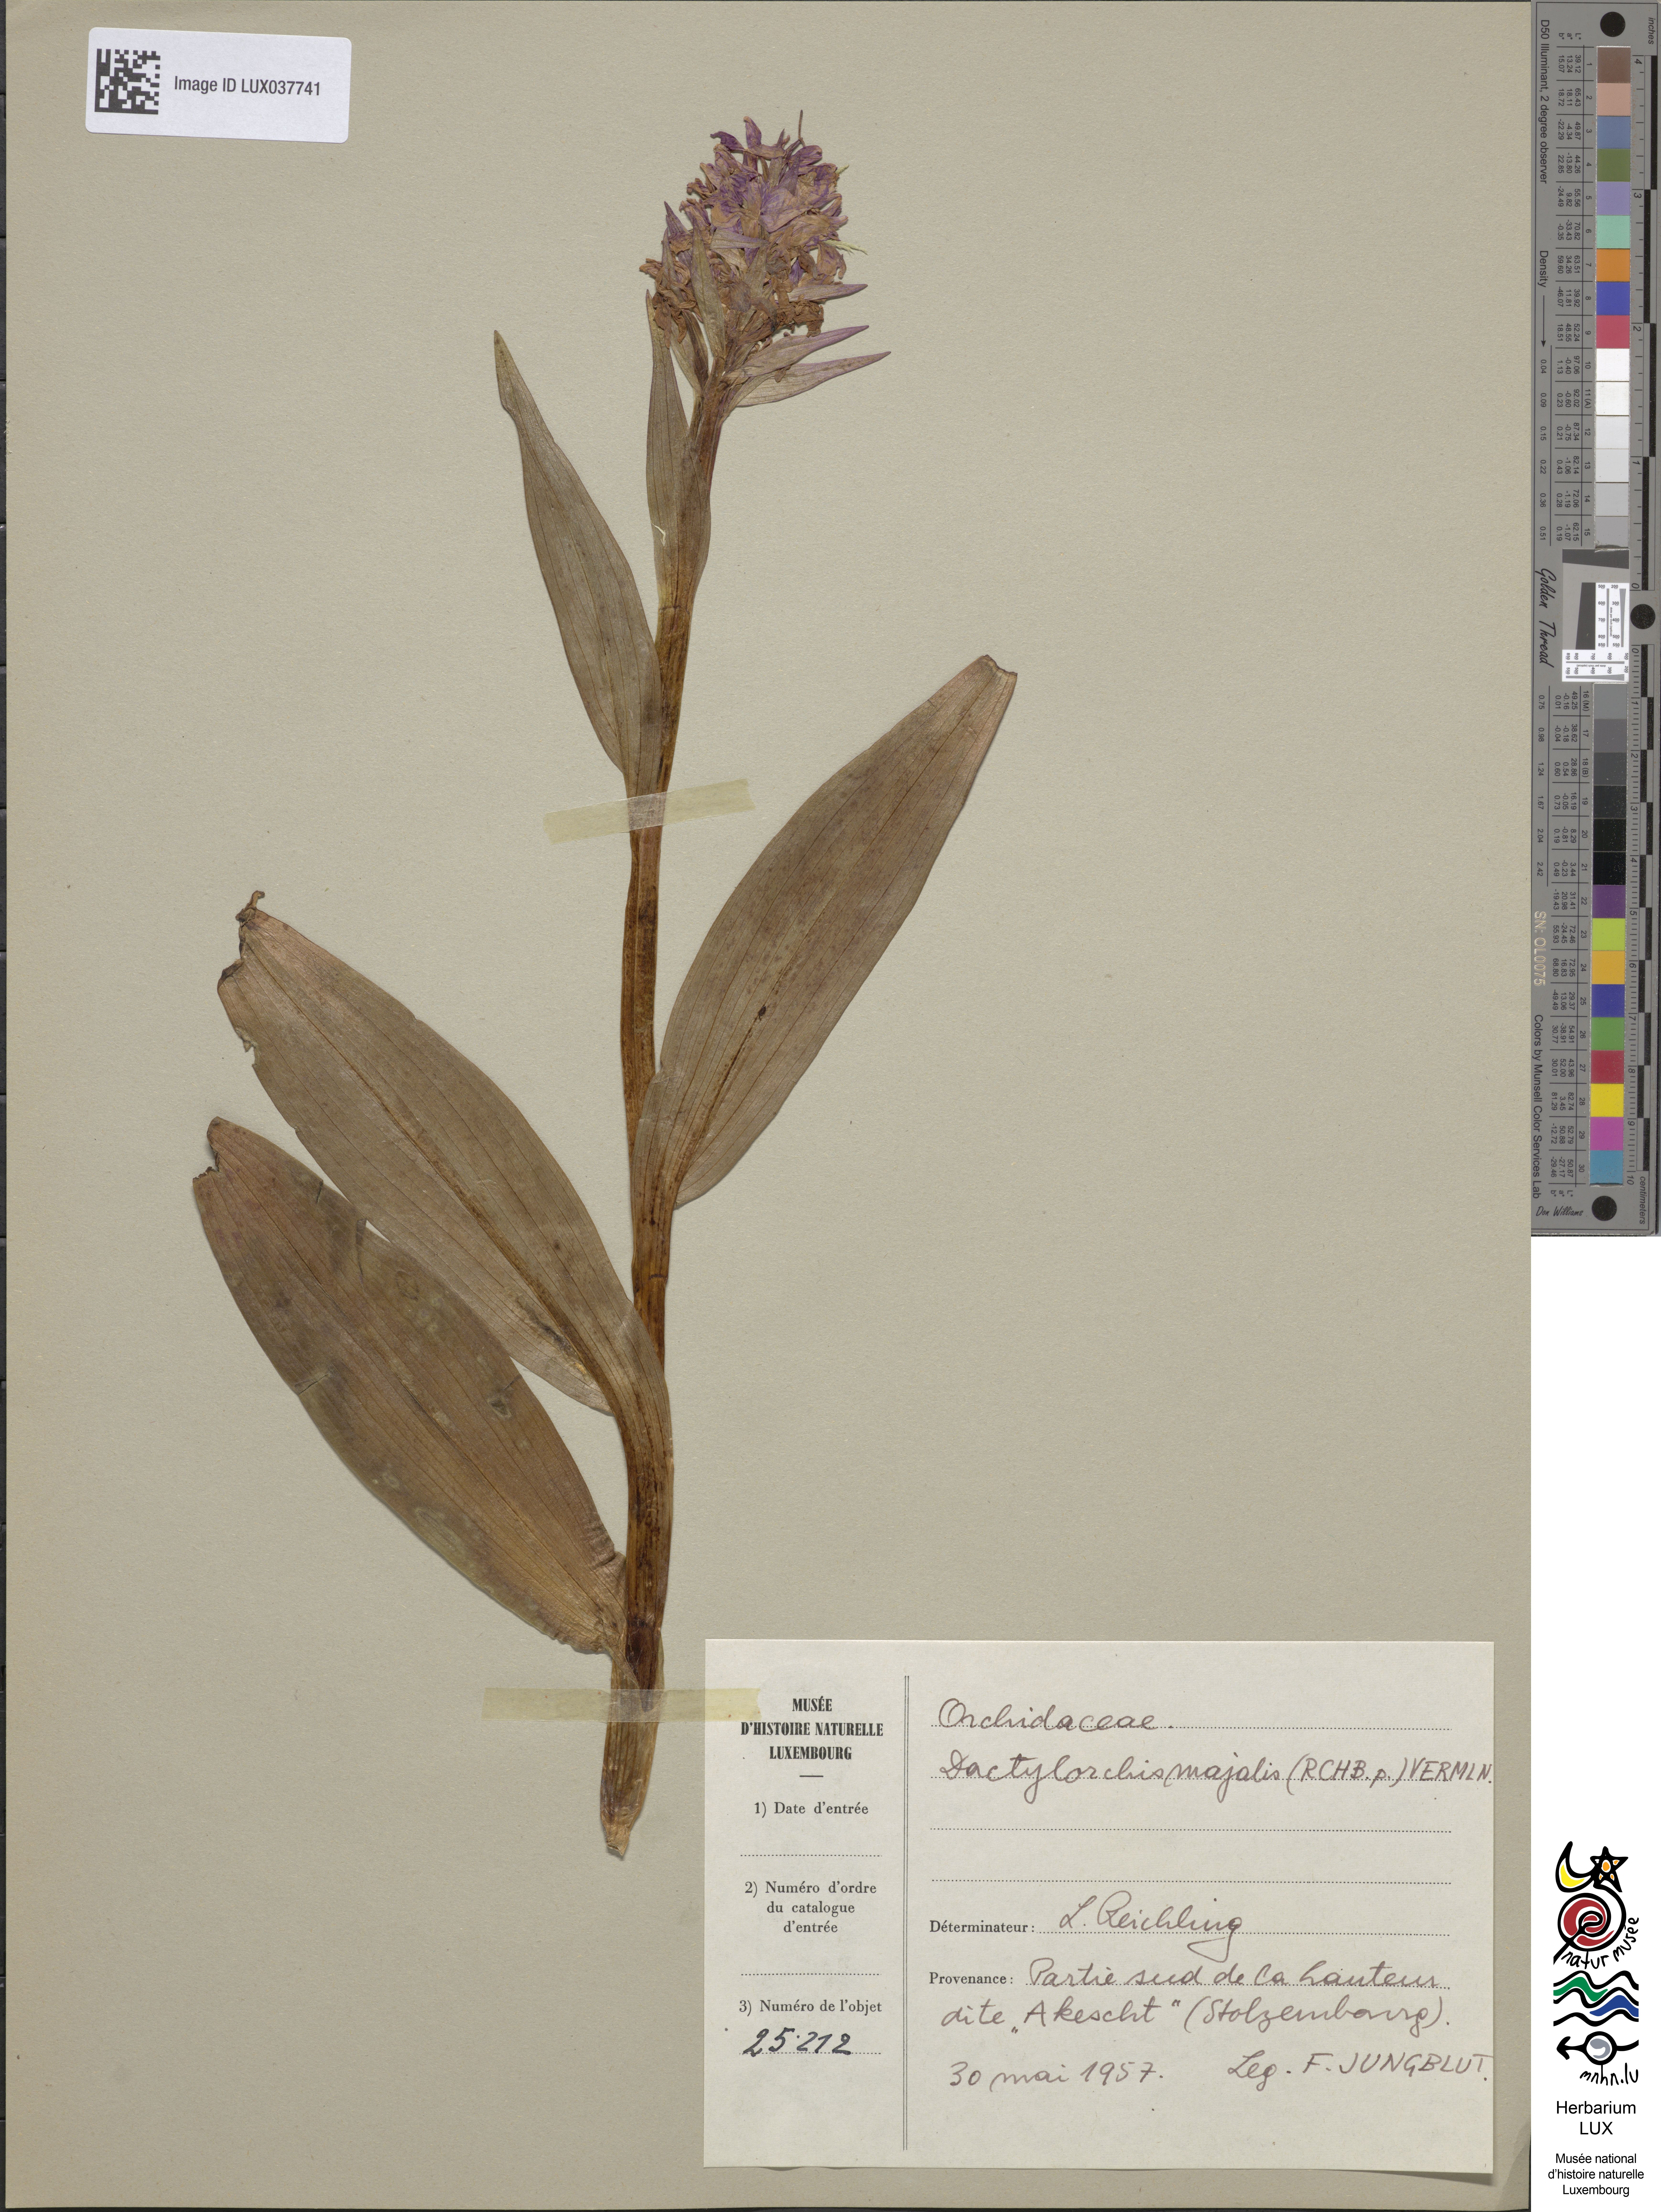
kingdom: Plantae
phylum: Tracheophyta
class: Liliopsida
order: Asparagales
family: Orchidaceae
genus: Dactylorhiza
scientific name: Dactylorhiza incarnata
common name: Early marsh-orchid
